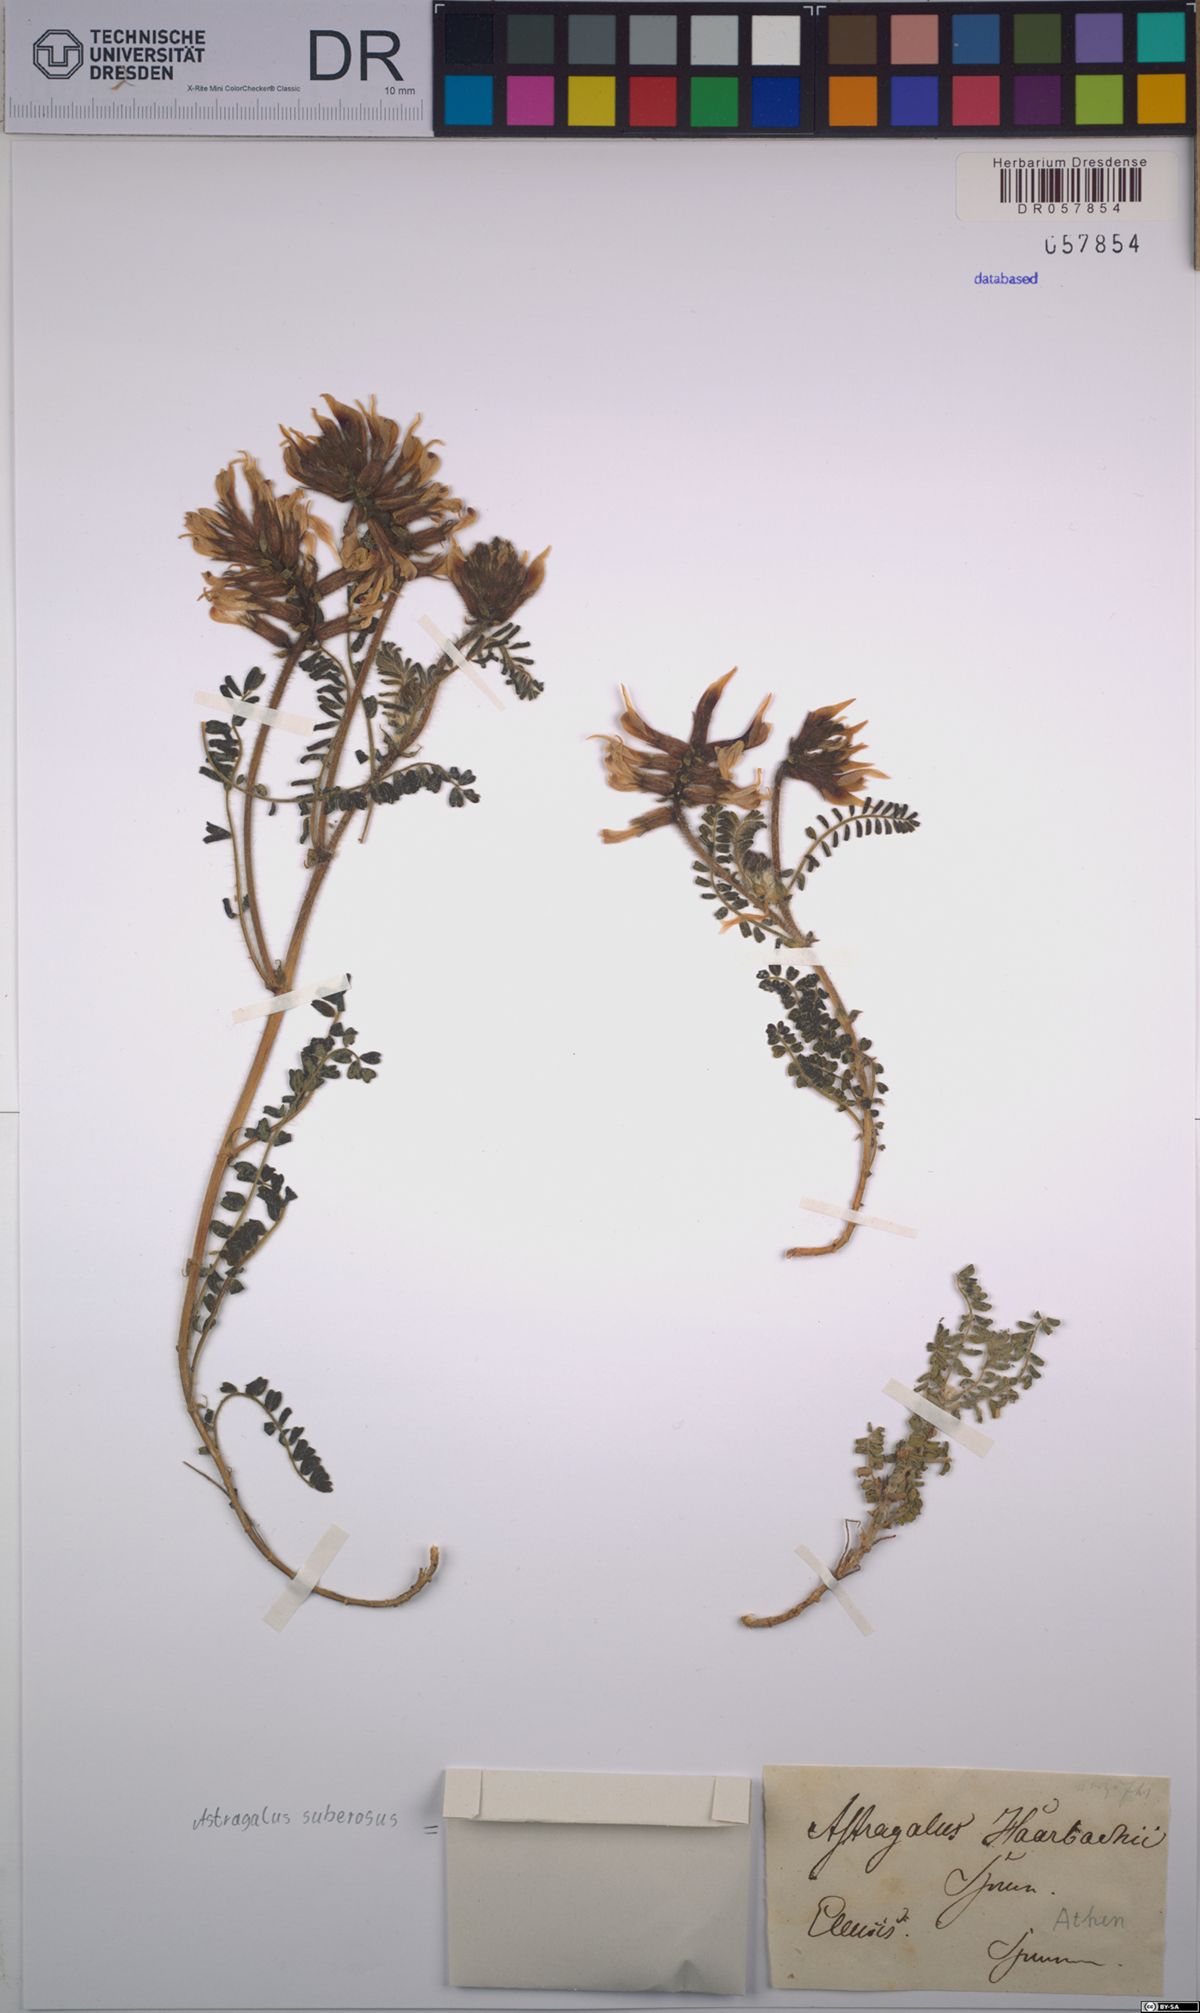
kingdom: Plantae
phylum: Tracheophyta
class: Magnoliopsida
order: Fabales
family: Fabaceae
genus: Astragalus
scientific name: Astragalus suberosus
